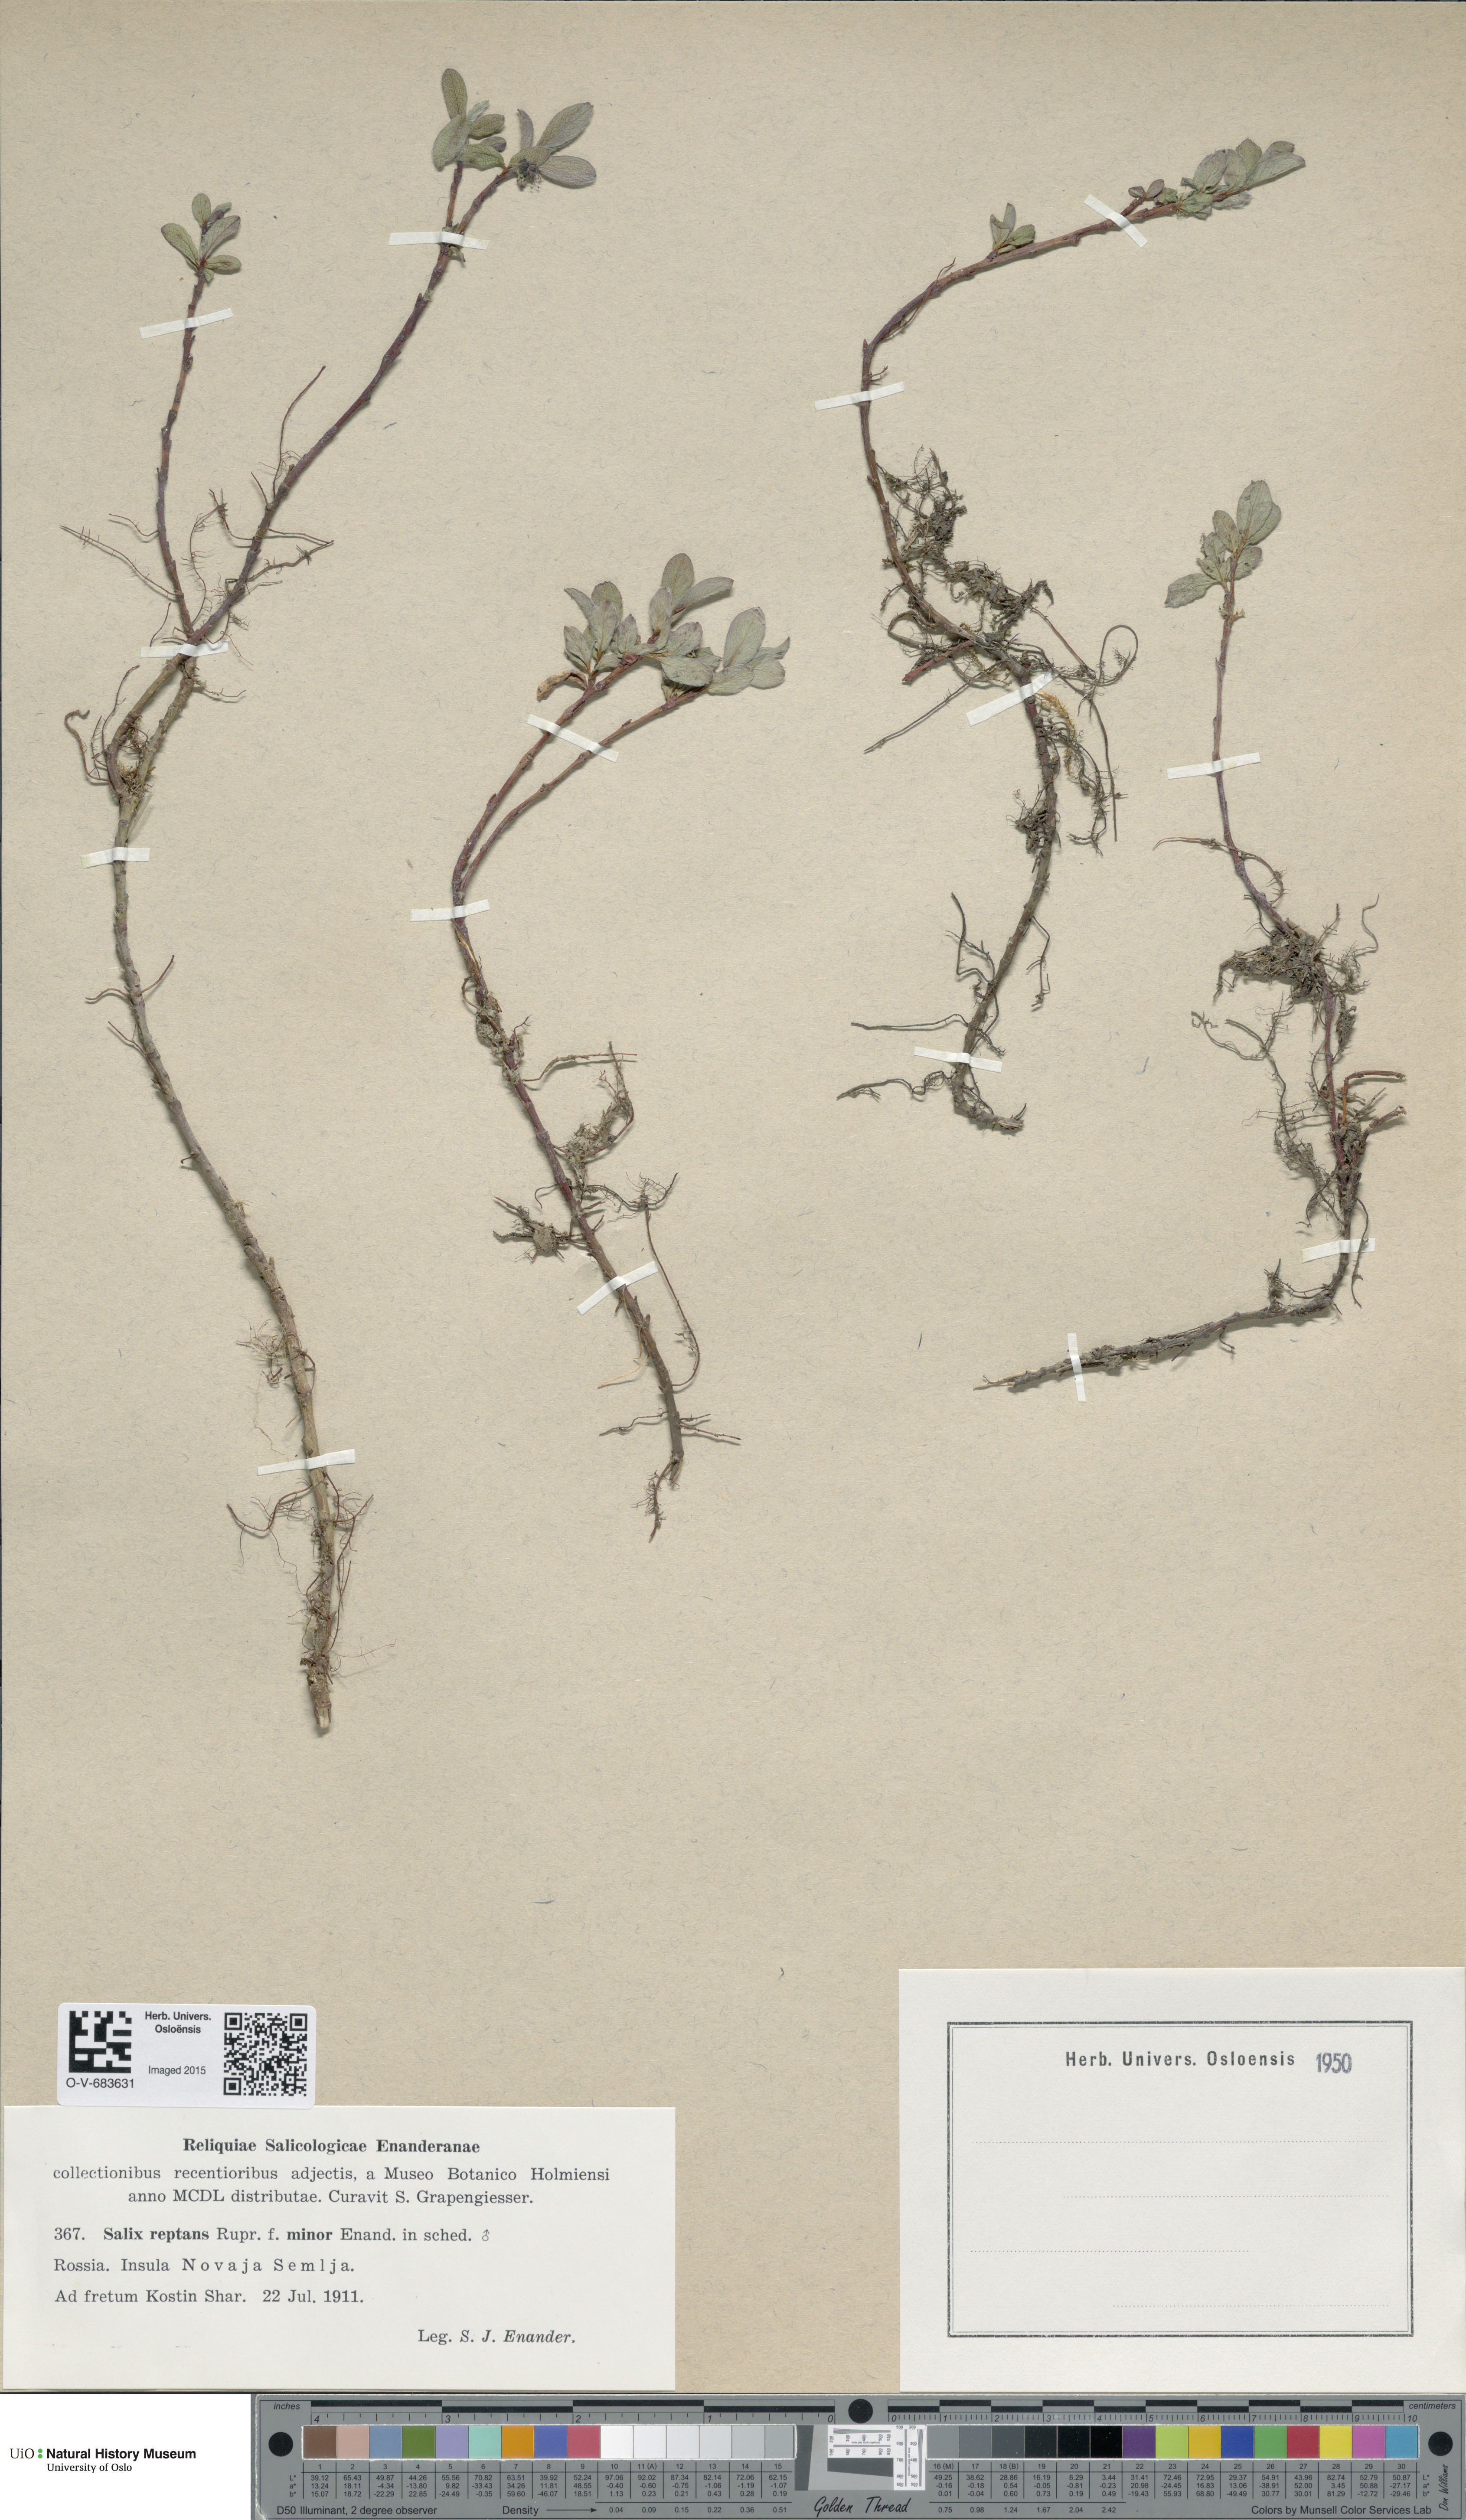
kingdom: Plantae
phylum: Tracheophyta
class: Magnoliopsida
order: Malpighiales
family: Salicaceae
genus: Salix
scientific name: Salix reptans
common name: Arctic creeping willow
